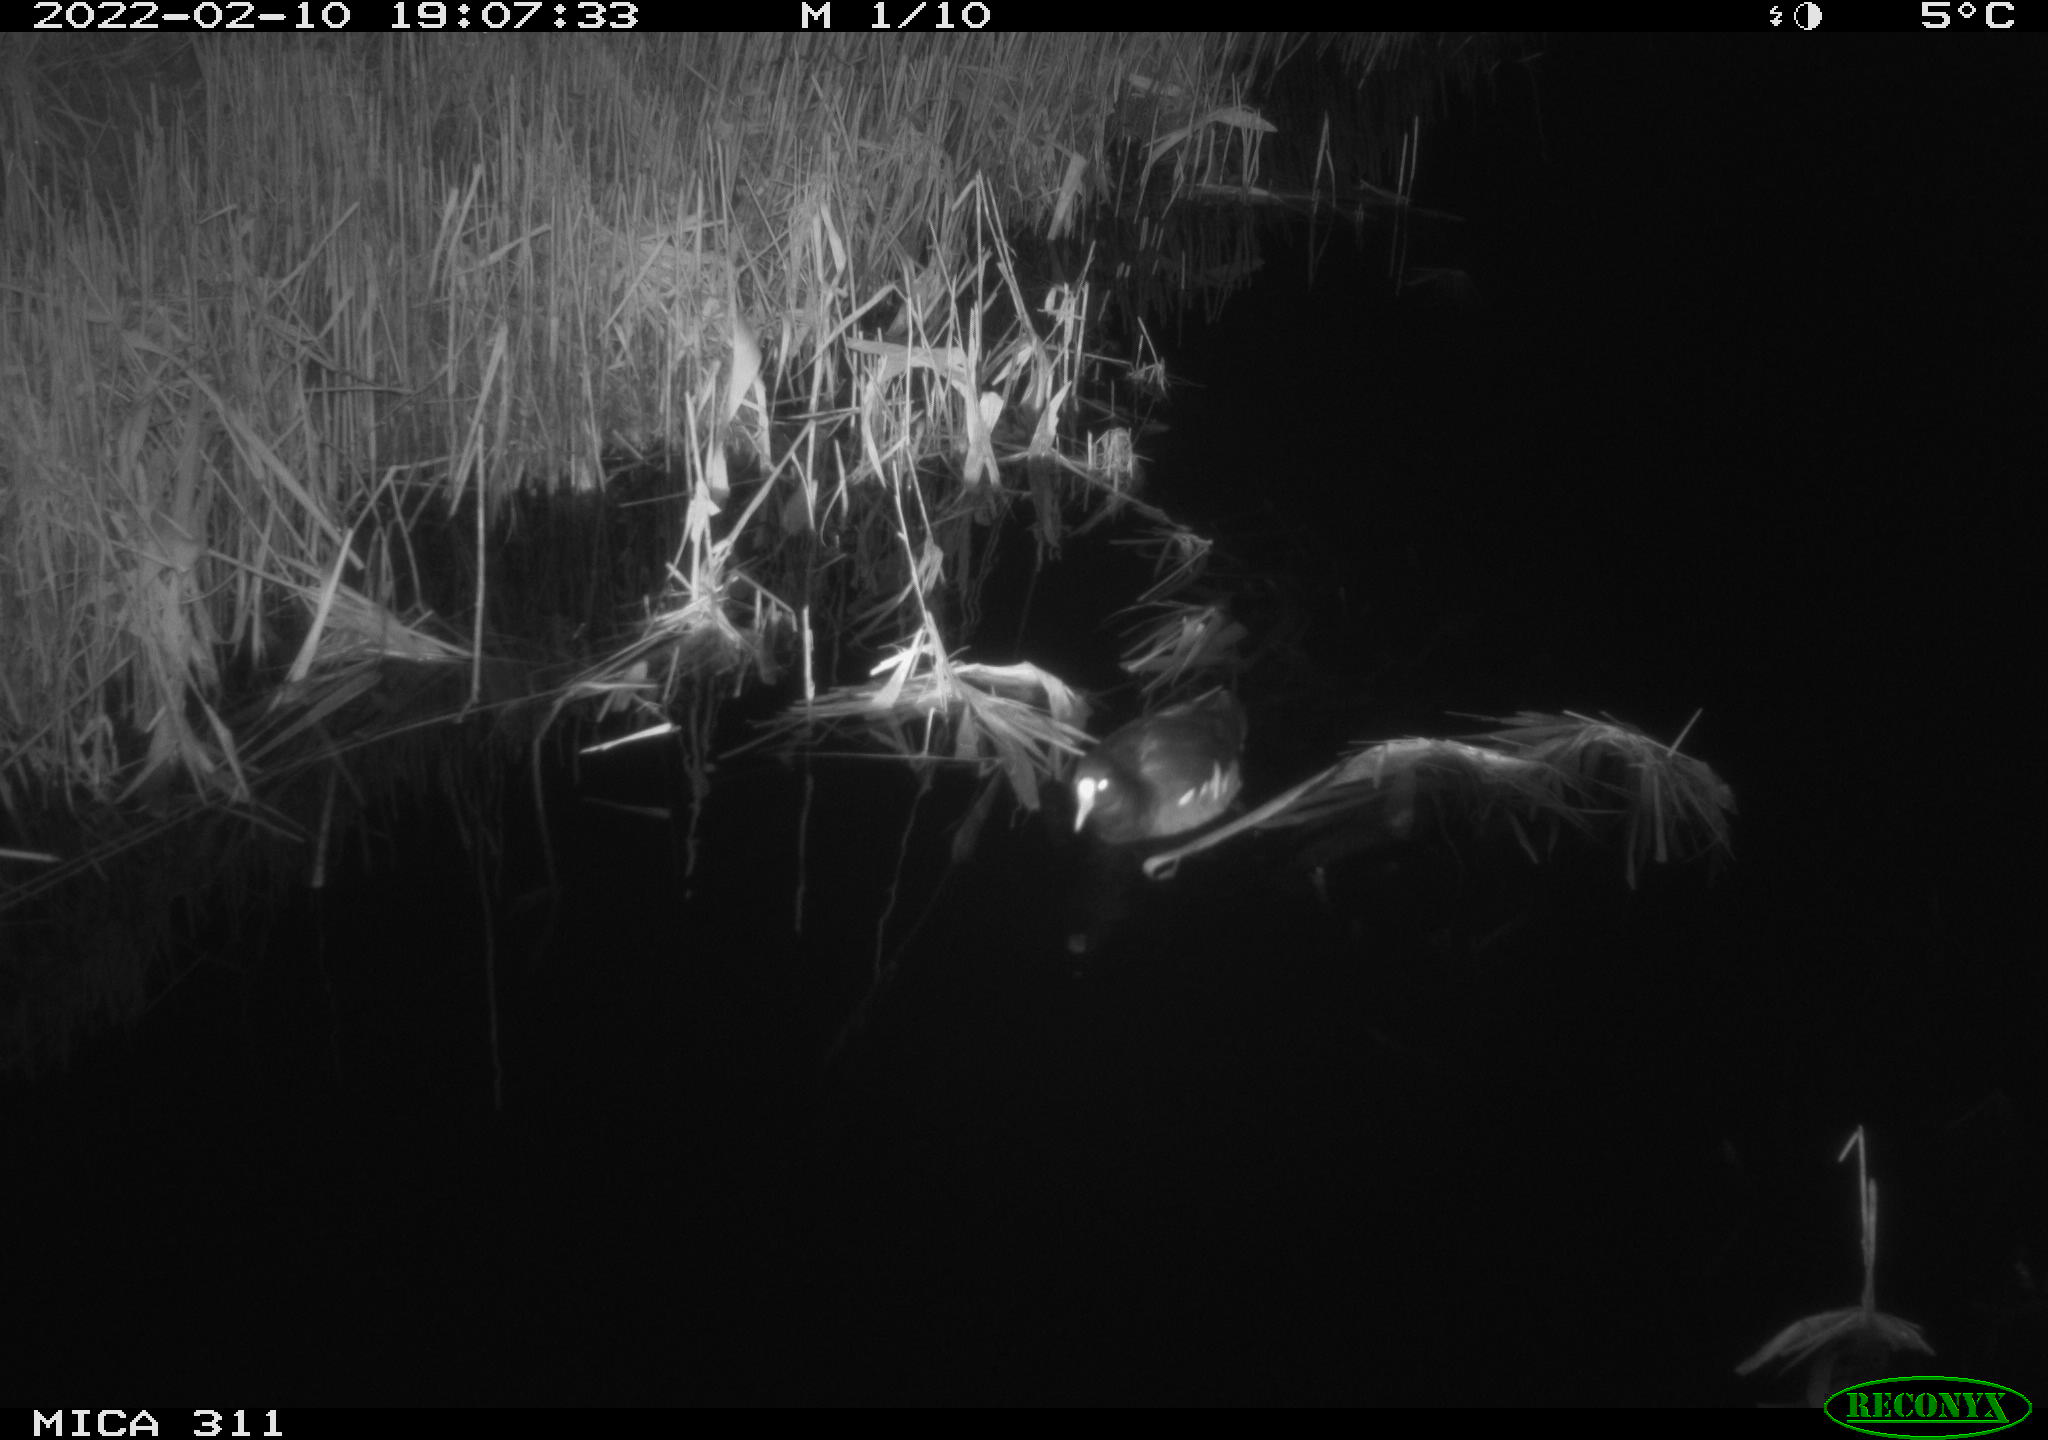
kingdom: Animalia
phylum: Chordata
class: Aves
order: Gruiformes
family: Rallidae
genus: Gallinula
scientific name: Gallinula chloropus
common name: Common moorhen
